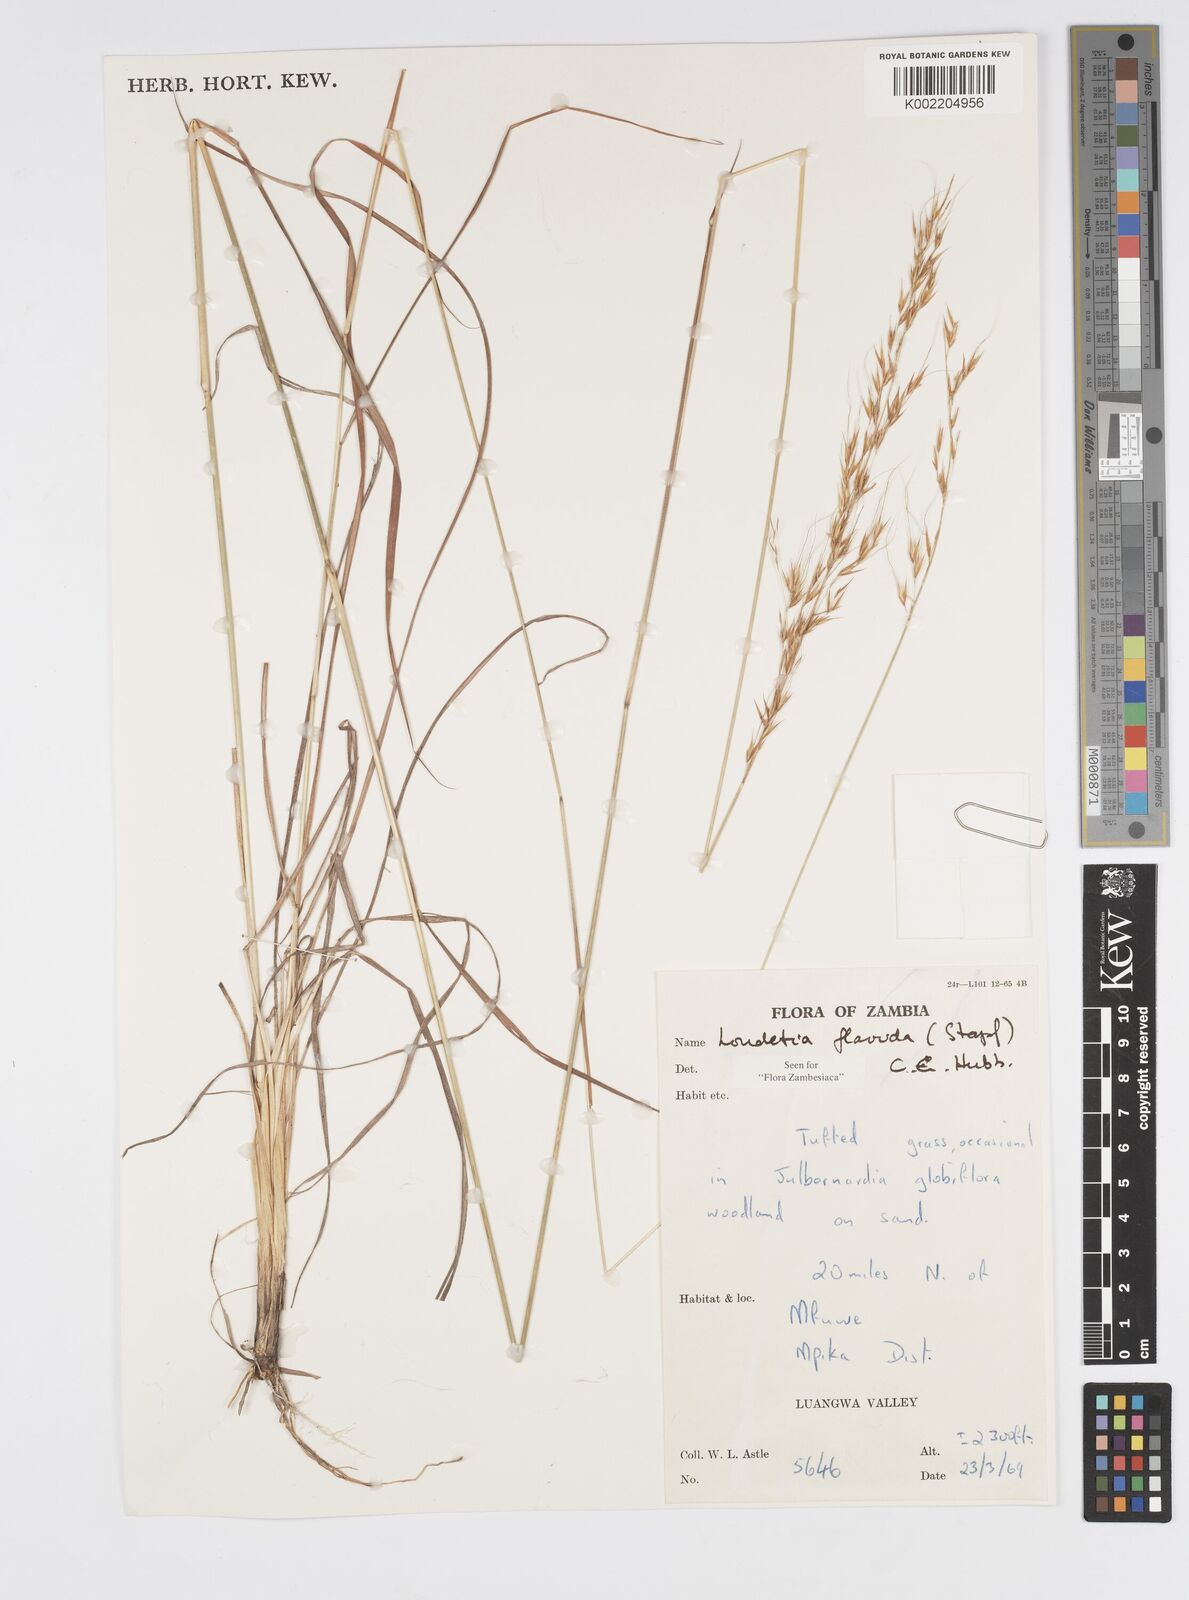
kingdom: Plantae
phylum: Tracheophyta
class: Liliopsida
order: Poales
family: Poaceae
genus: Loudetia
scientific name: Loudetia flavida
